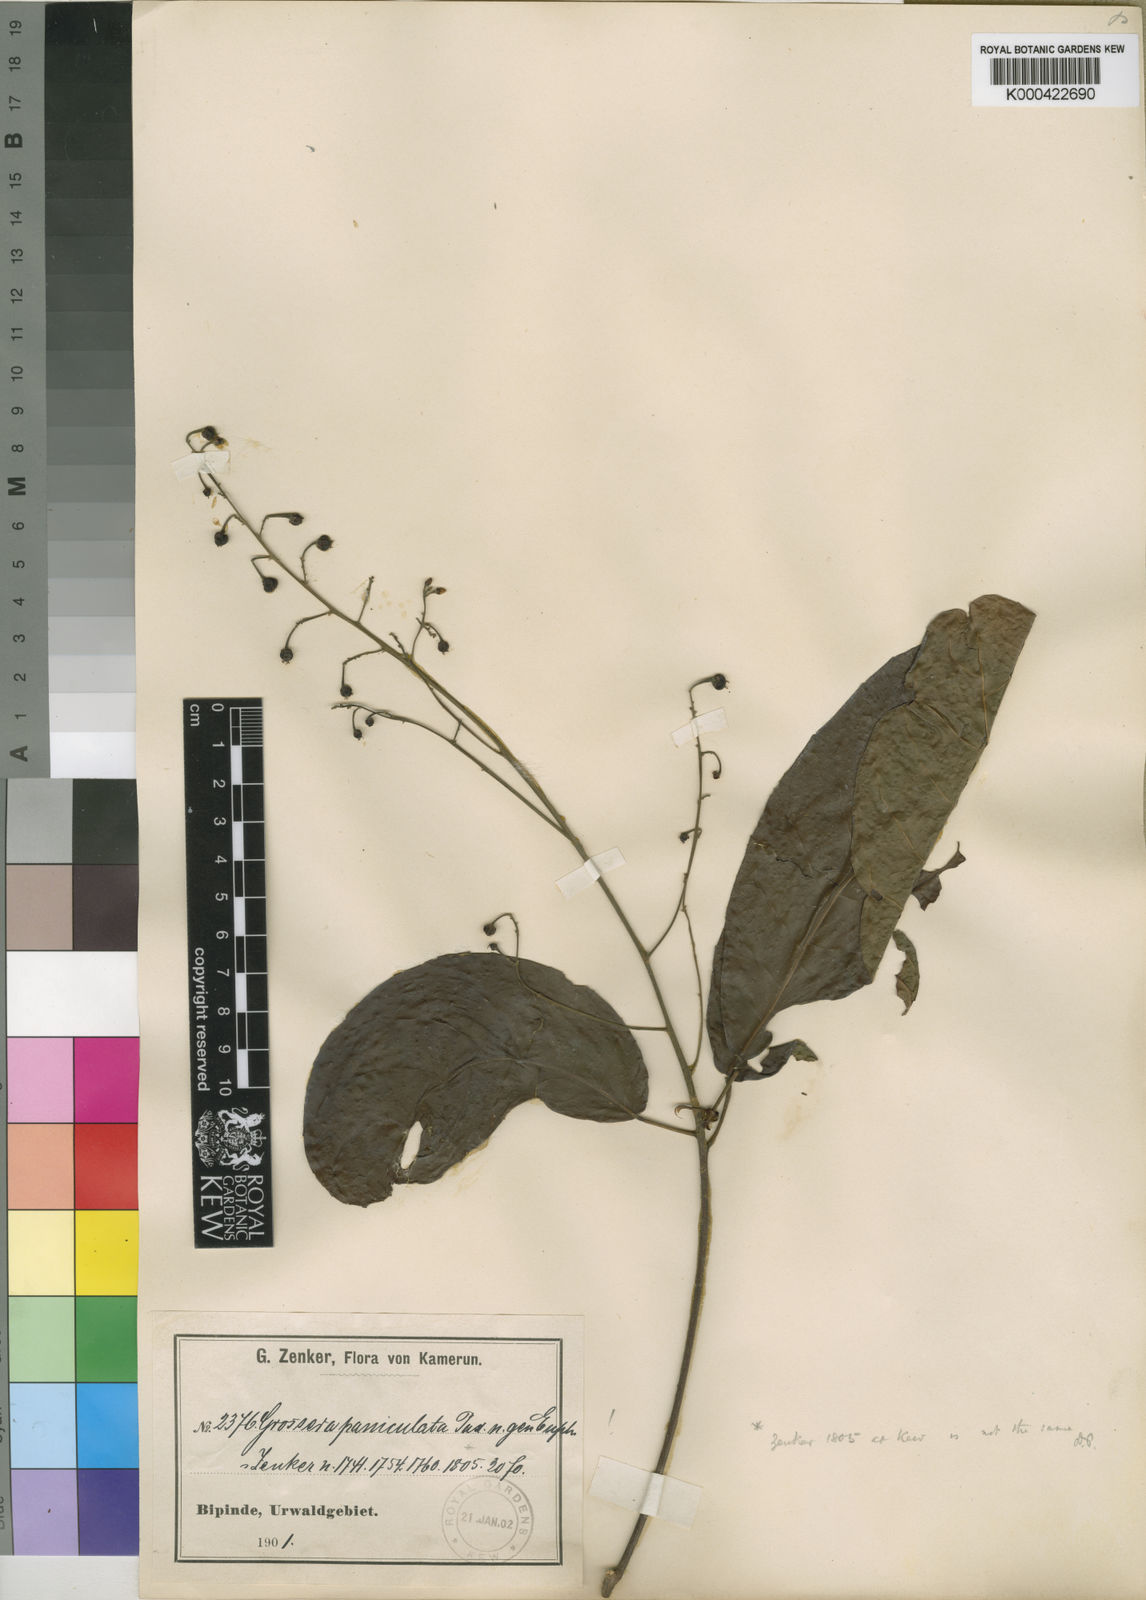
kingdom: Plantae
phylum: Tracheophyta
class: Magnoliopsida
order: Malpighiales
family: Euphorbiaceae
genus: Grossera
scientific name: Grossera paniculata
